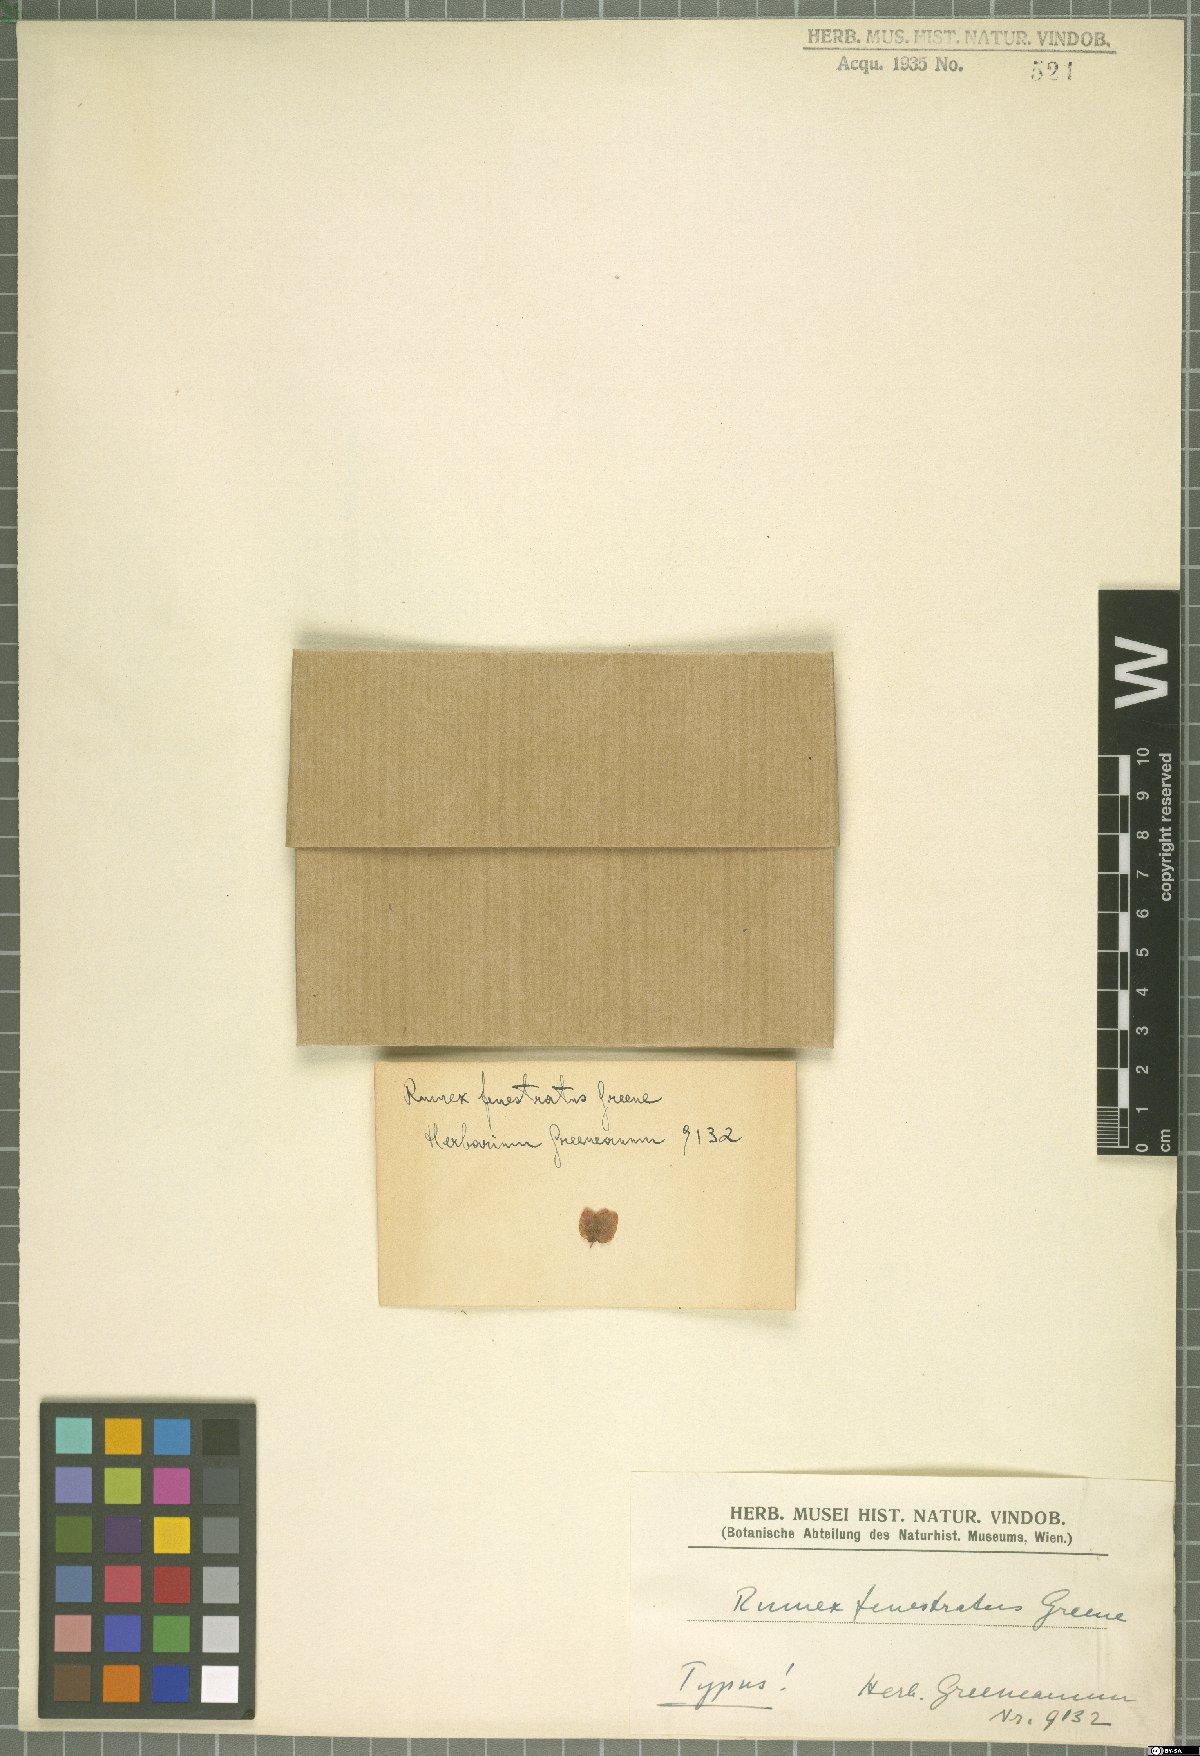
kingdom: Plantae
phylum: Tracheophyta
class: Magnoliopsida
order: Caryophyllales
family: Polygonaceae
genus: Rumex
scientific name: Rumex occidentalis
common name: Western dock
